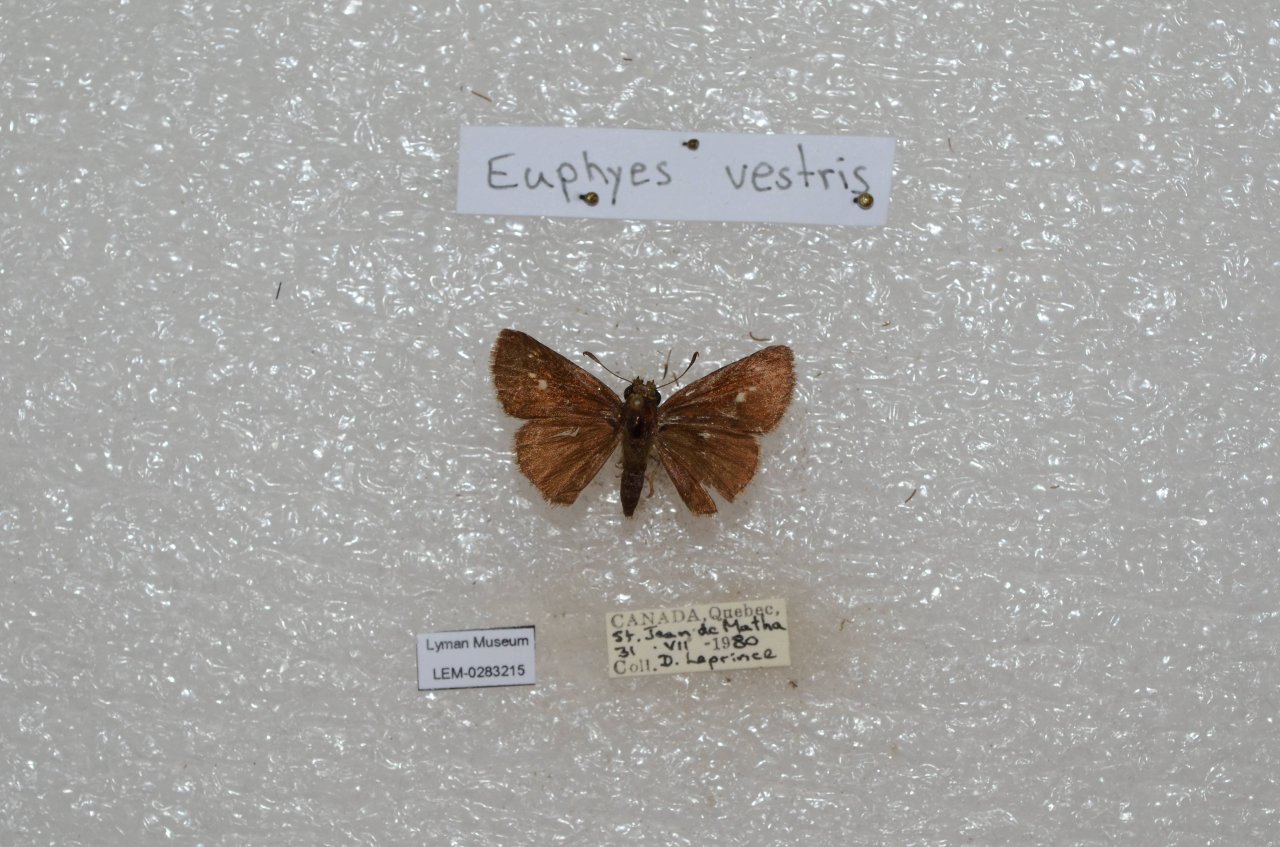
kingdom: Animalia
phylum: Arthropoda
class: Insecta
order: Lepidoptera
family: Hesperiidae
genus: Euphyes
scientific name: Euphyes vestris
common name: Dun Skipper
